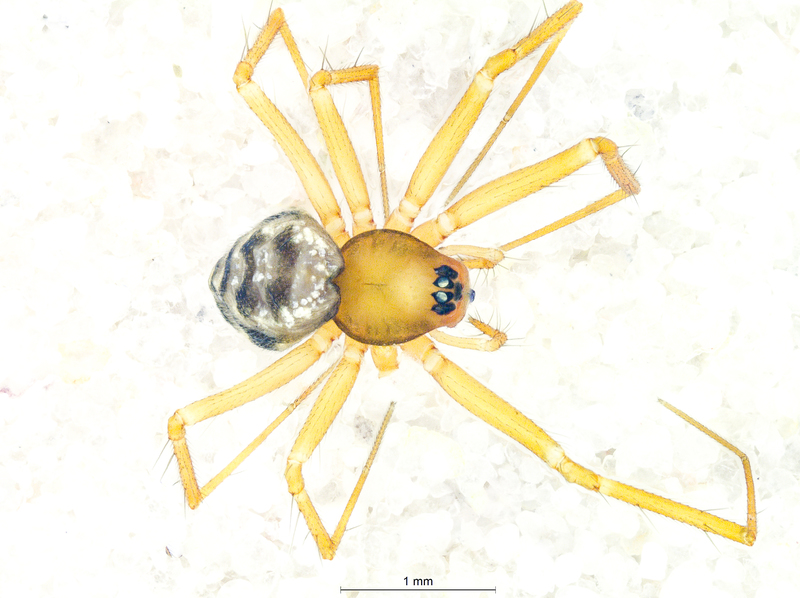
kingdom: Animalia
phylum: Arthropoda
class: Arachnida
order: Araneae
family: Linyphiidae
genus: Tenuiphantes
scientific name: Tenuiphantes cristatus
